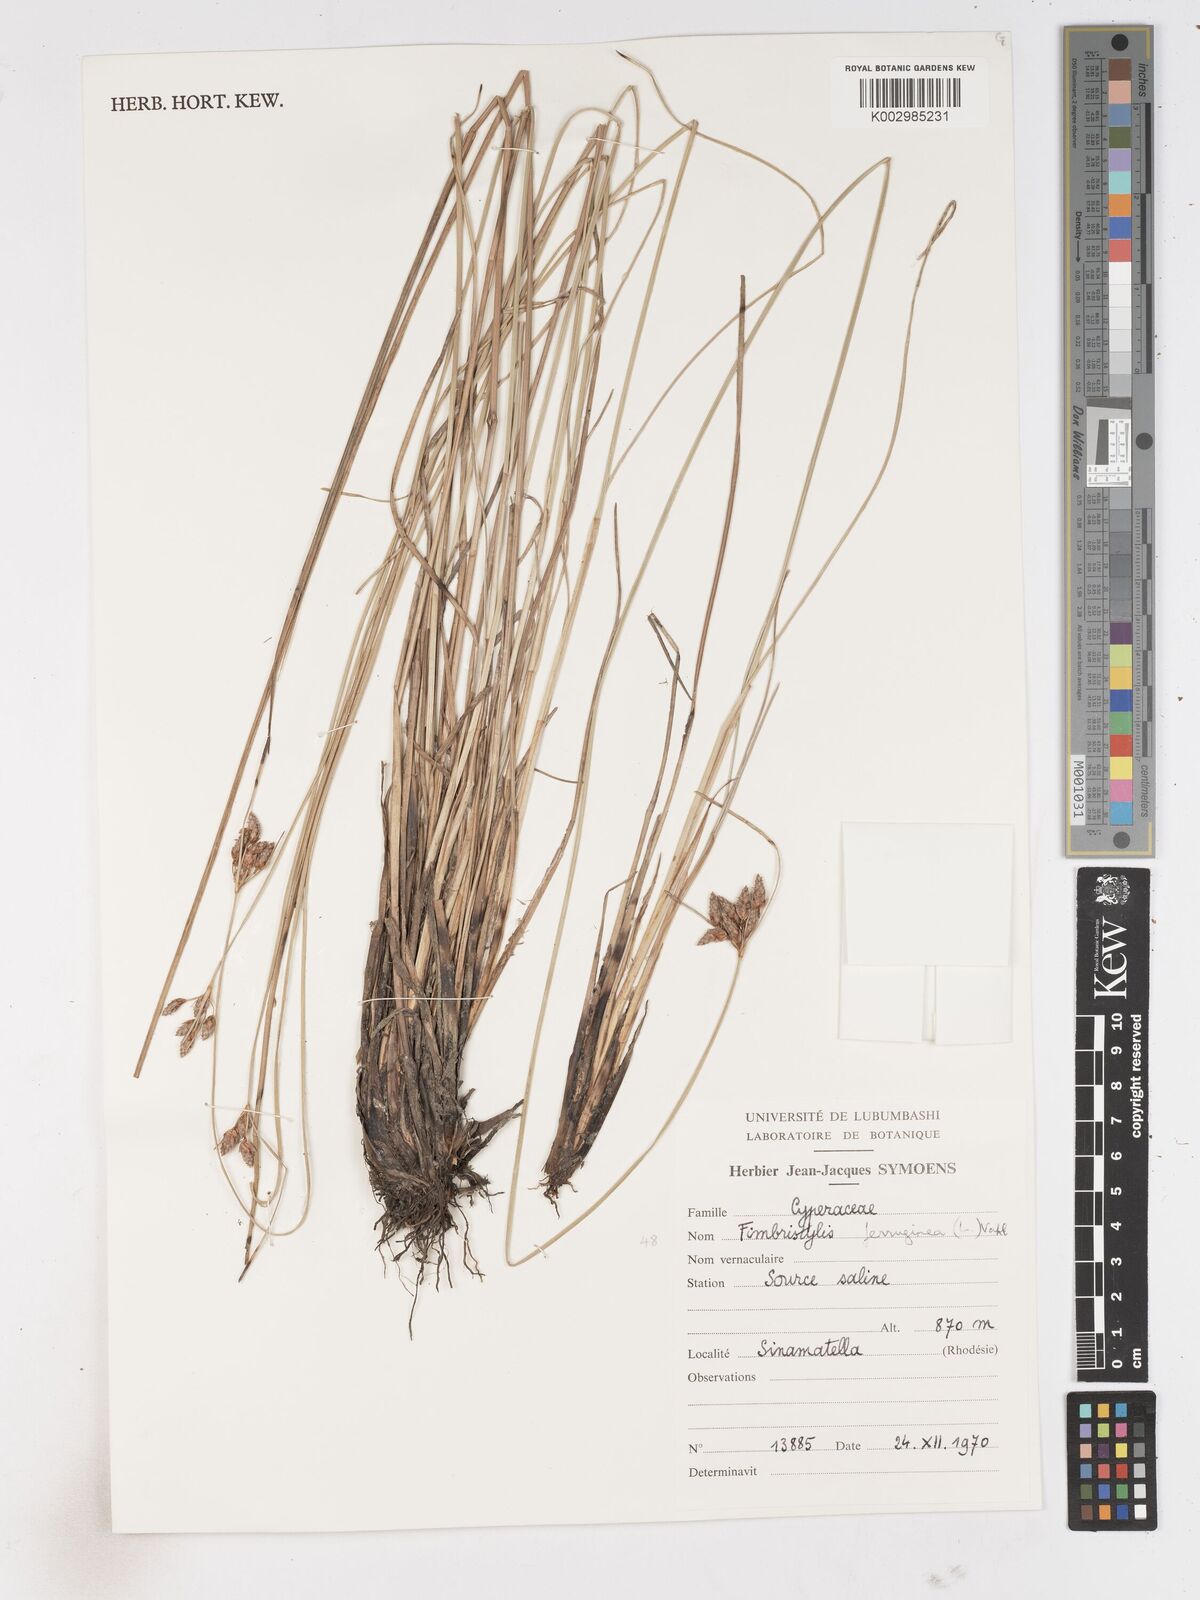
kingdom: Plantae
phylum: Tracheophyta
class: Liliopsida
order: Poales
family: Cyperaceae
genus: Fimbristylis
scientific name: Fimbristylis ferruginea
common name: West indian fimbry
